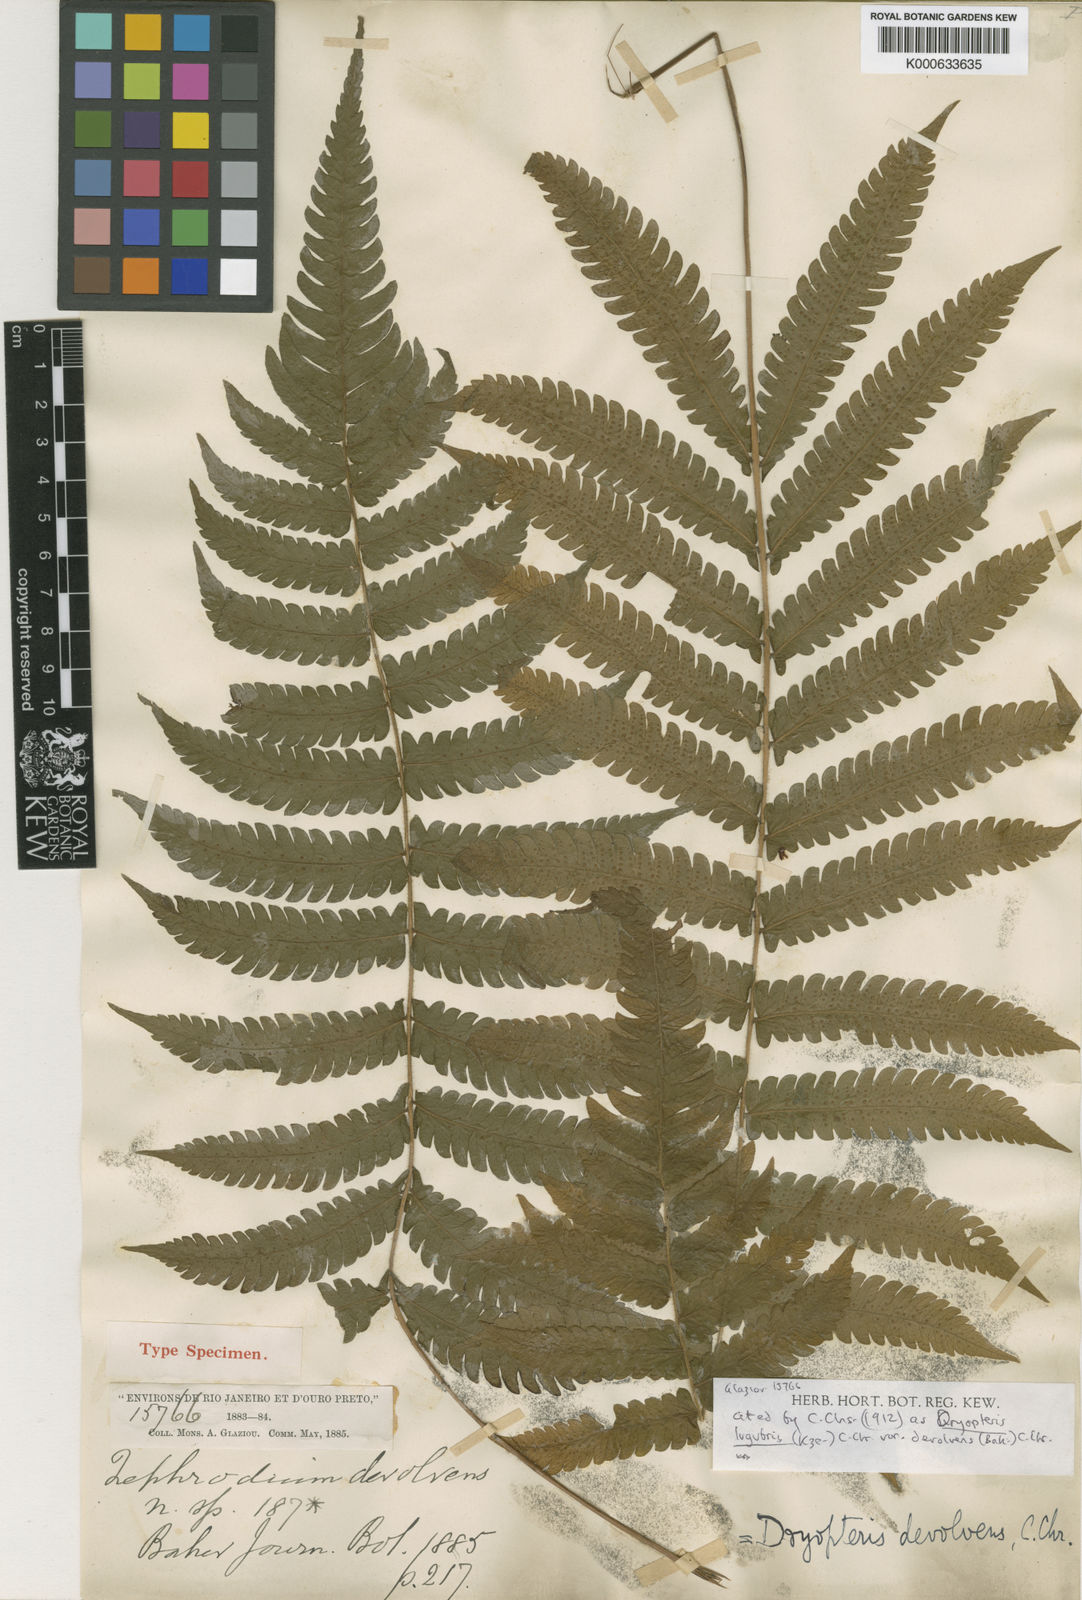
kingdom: Plantae
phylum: Tracheophyta
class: Polypodiopsida
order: Polypodiales
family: Thelypteridaceae
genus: Goniopteris
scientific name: Goniopteris
